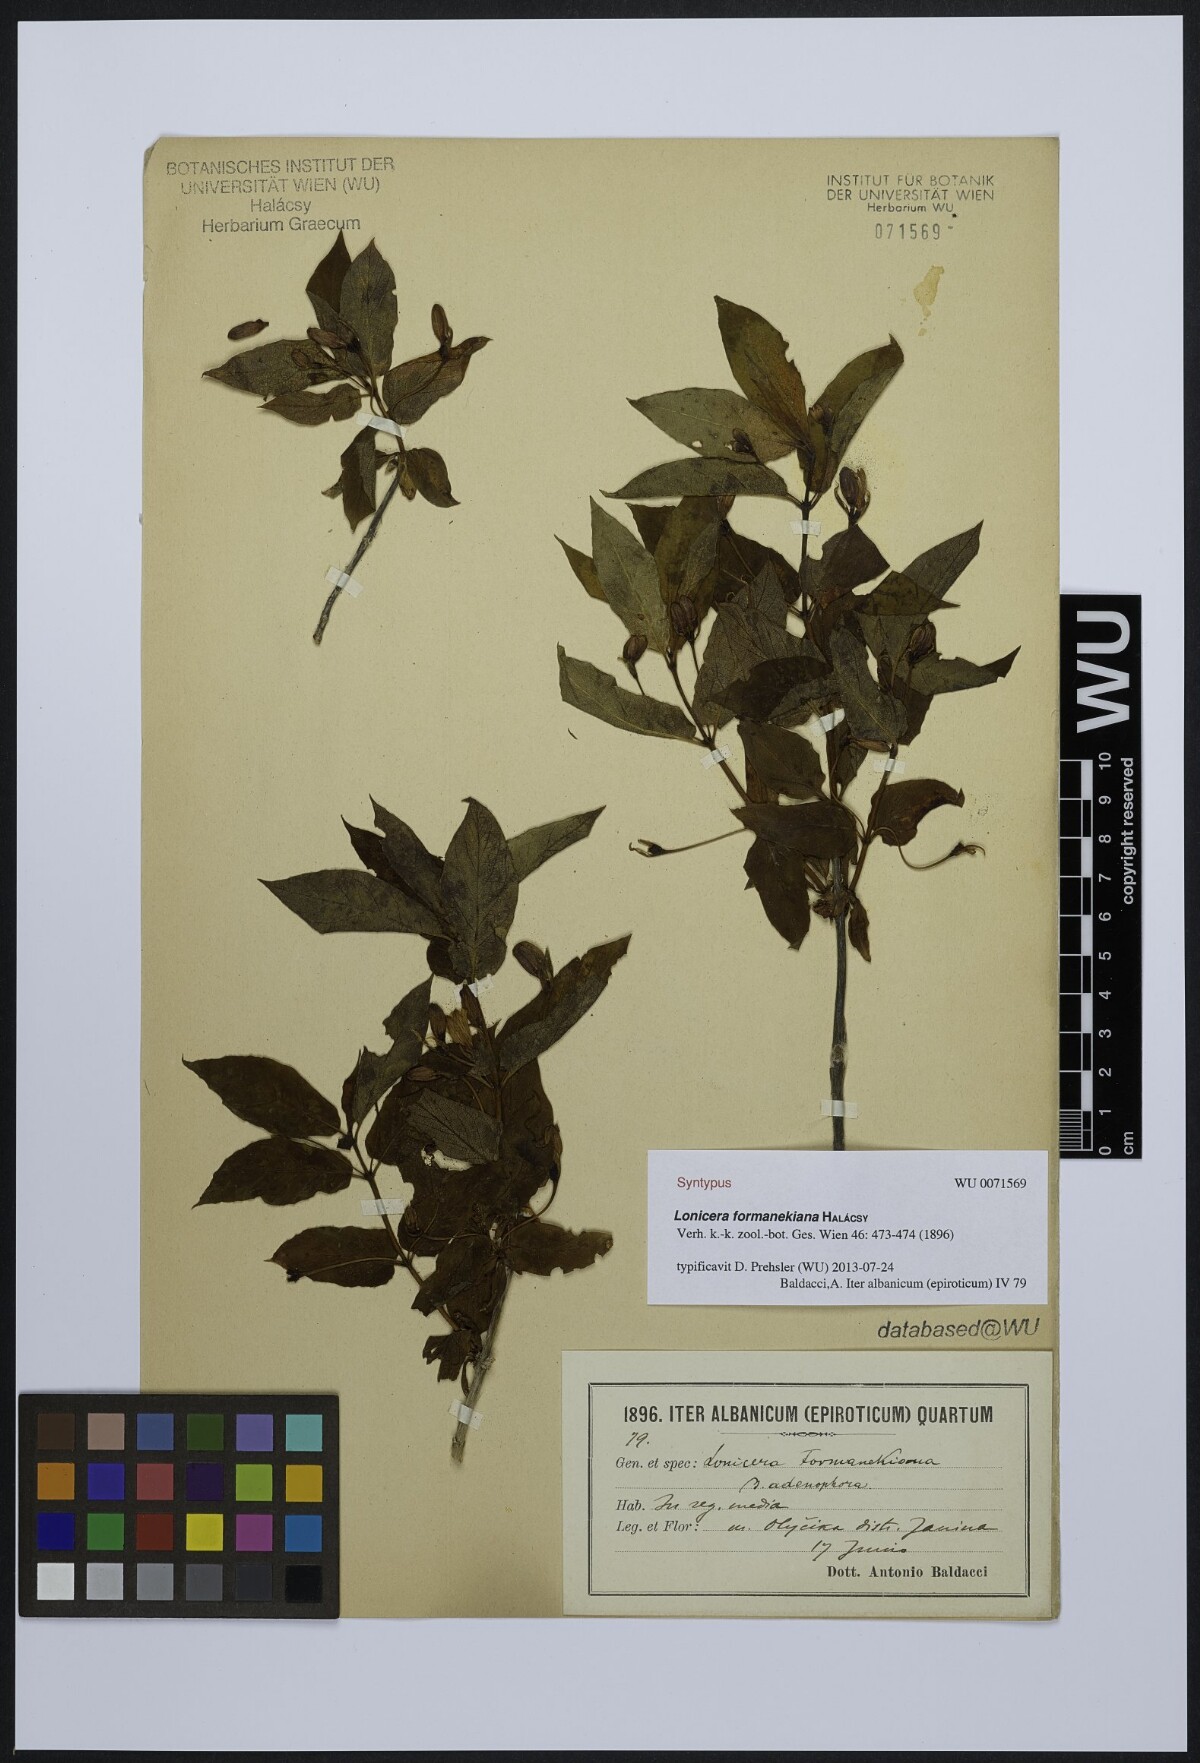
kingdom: Plantae
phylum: Tracheophyta
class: Magnoliopsida
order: Dipsacales
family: Caprifoliaceae
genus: Lonicera
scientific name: Lonicera alpigena
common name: Alpine honeysuckle
